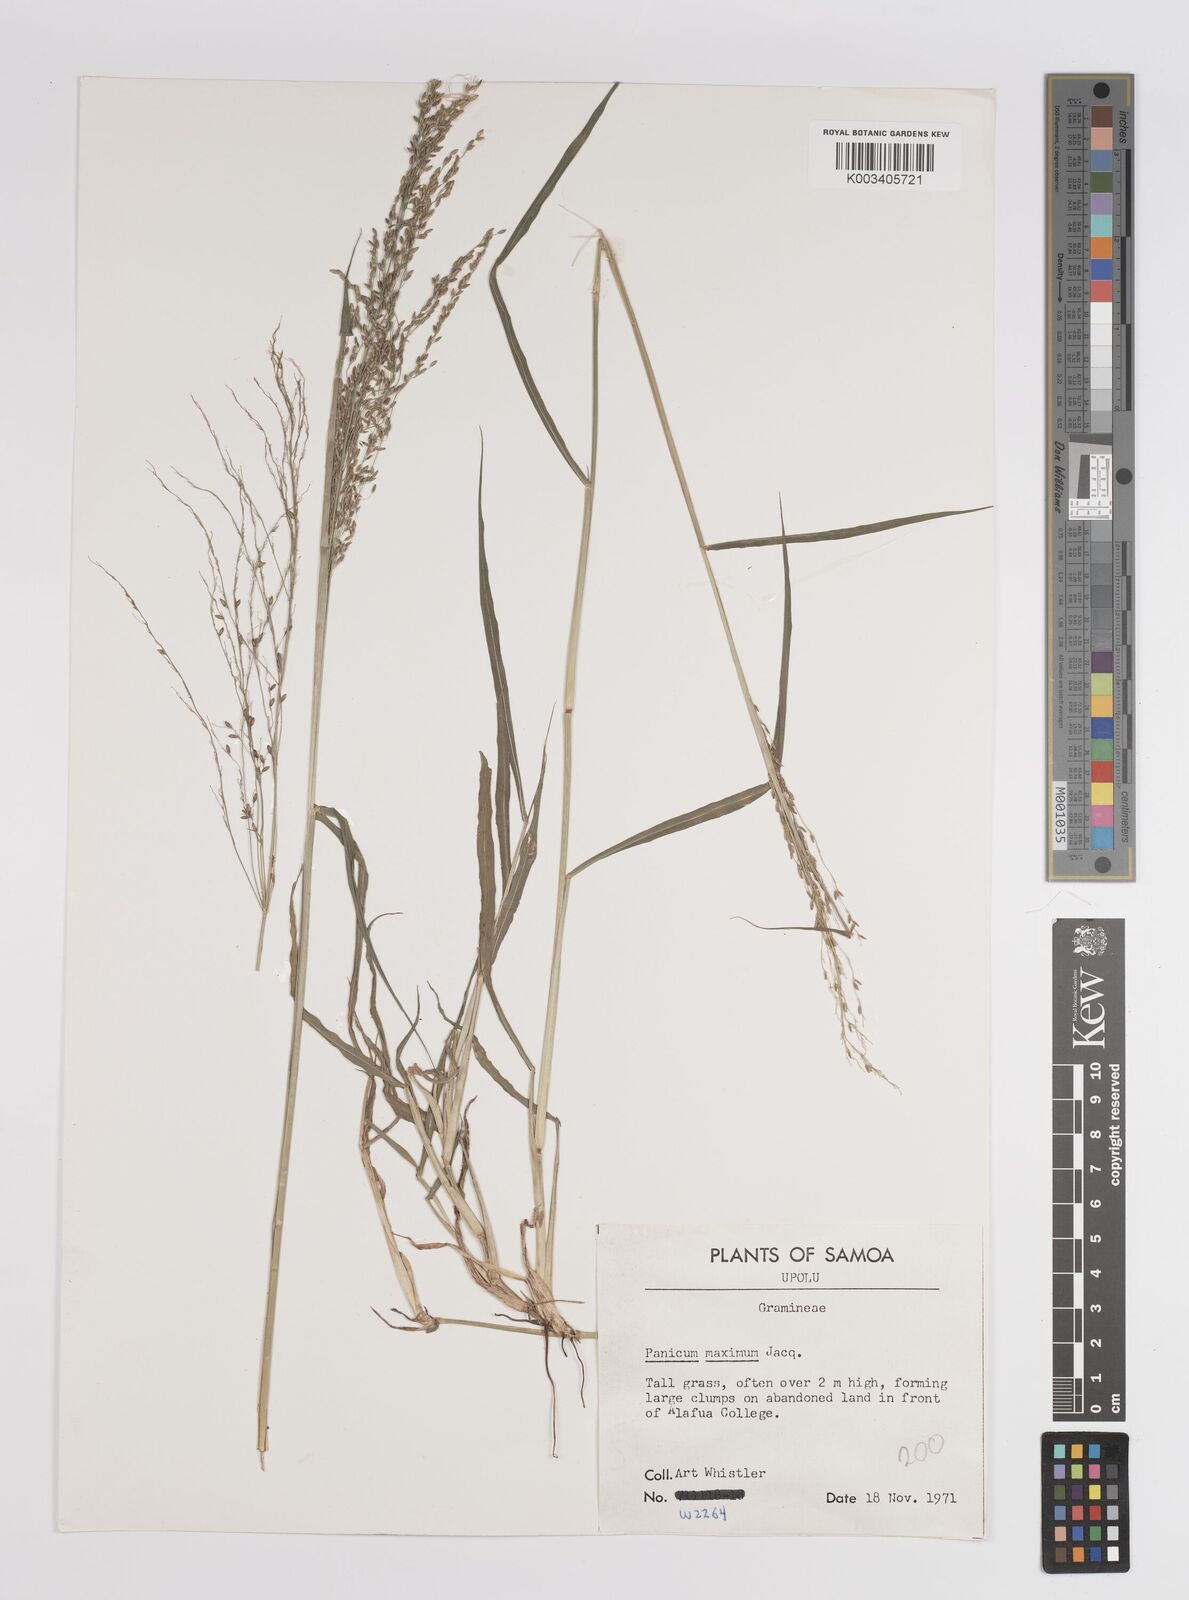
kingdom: Plantae
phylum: Tracheophyta
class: Liliopsida
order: Poales
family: Poaceae
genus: Megathyrsus
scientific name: Megathyrsus maximus
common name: Guineagrass
